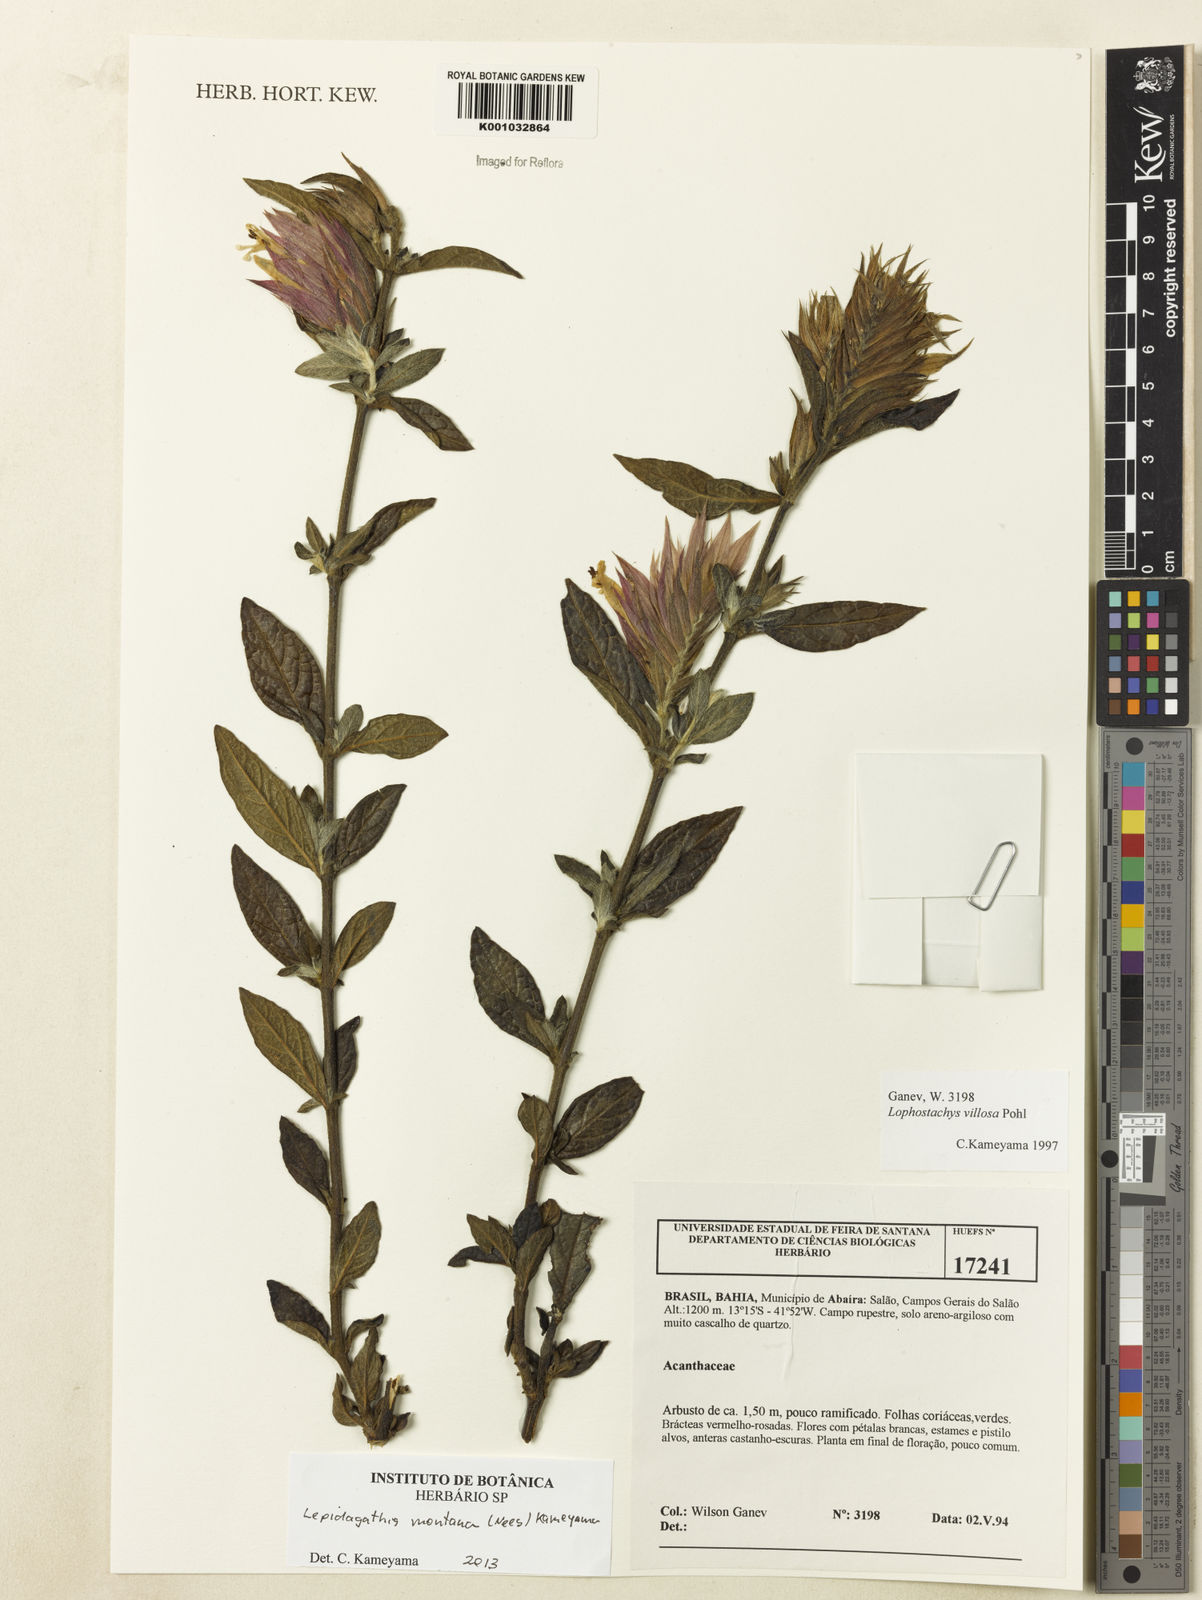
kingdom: Plantae
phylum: Tracheophyta
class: Magnoliopsida
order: Lamiales
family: Acanthaceae
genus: Lepidagathis
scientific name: Lepidagathis montana
